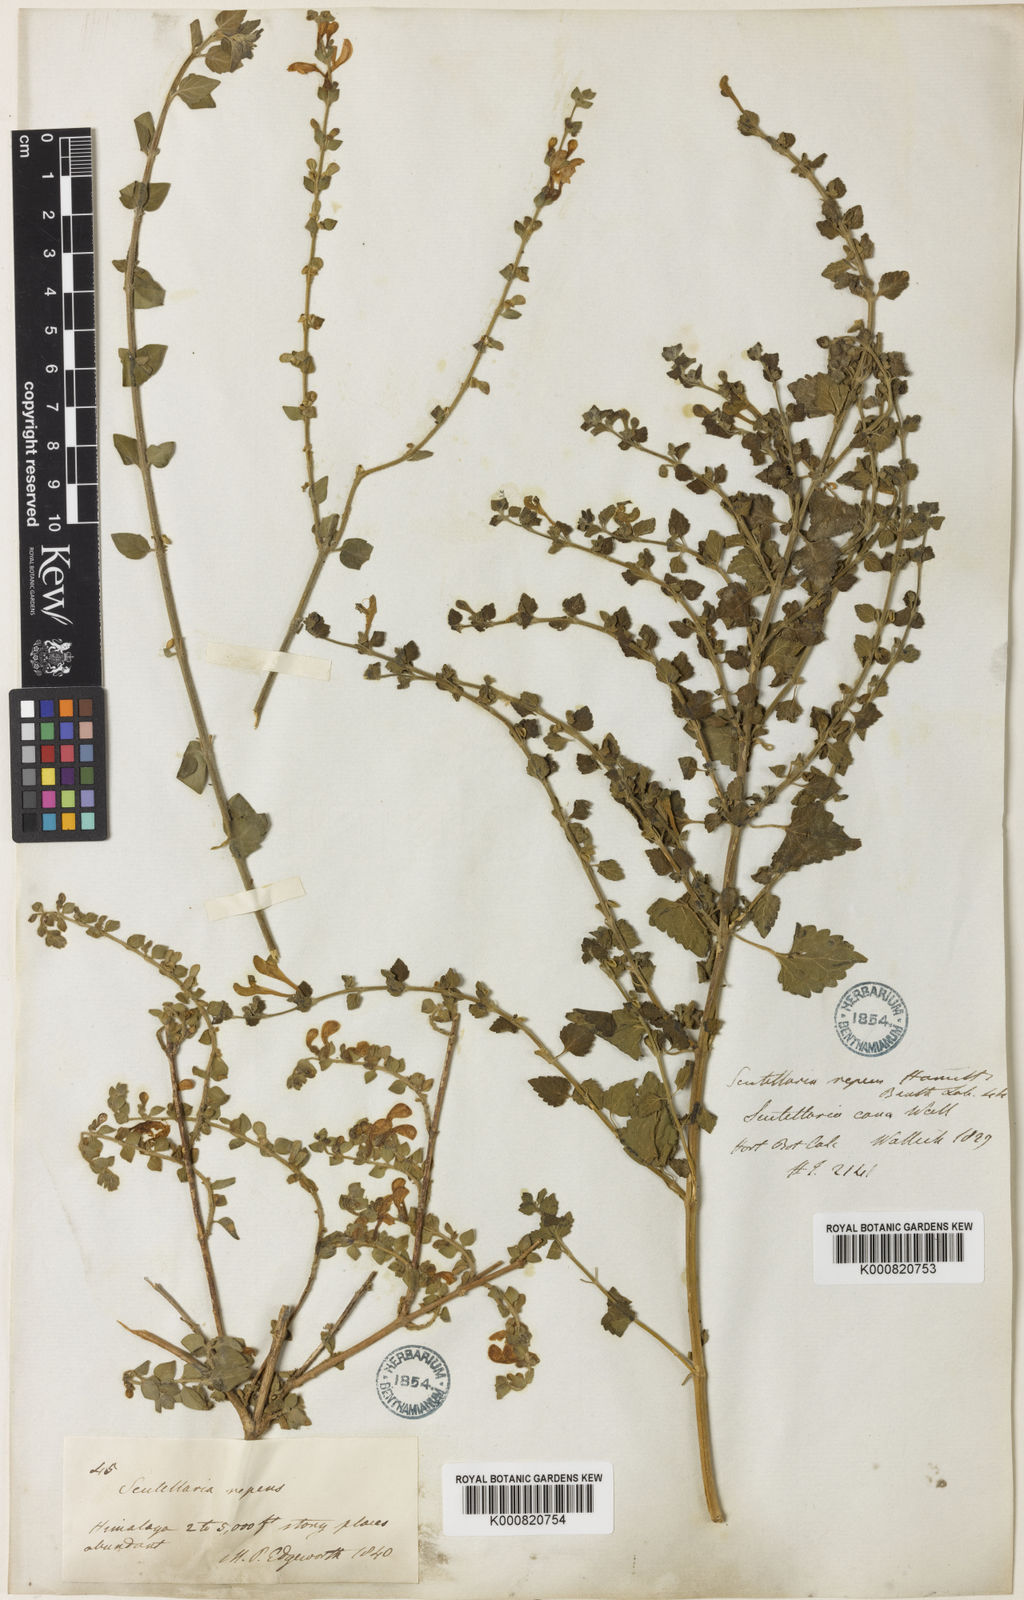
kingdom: Plantae
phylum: Tracheophyta
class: Magnoliopsida
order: Lamiales
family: Lamiaceae
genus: Scutellaria
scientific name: Scutellaria repens
